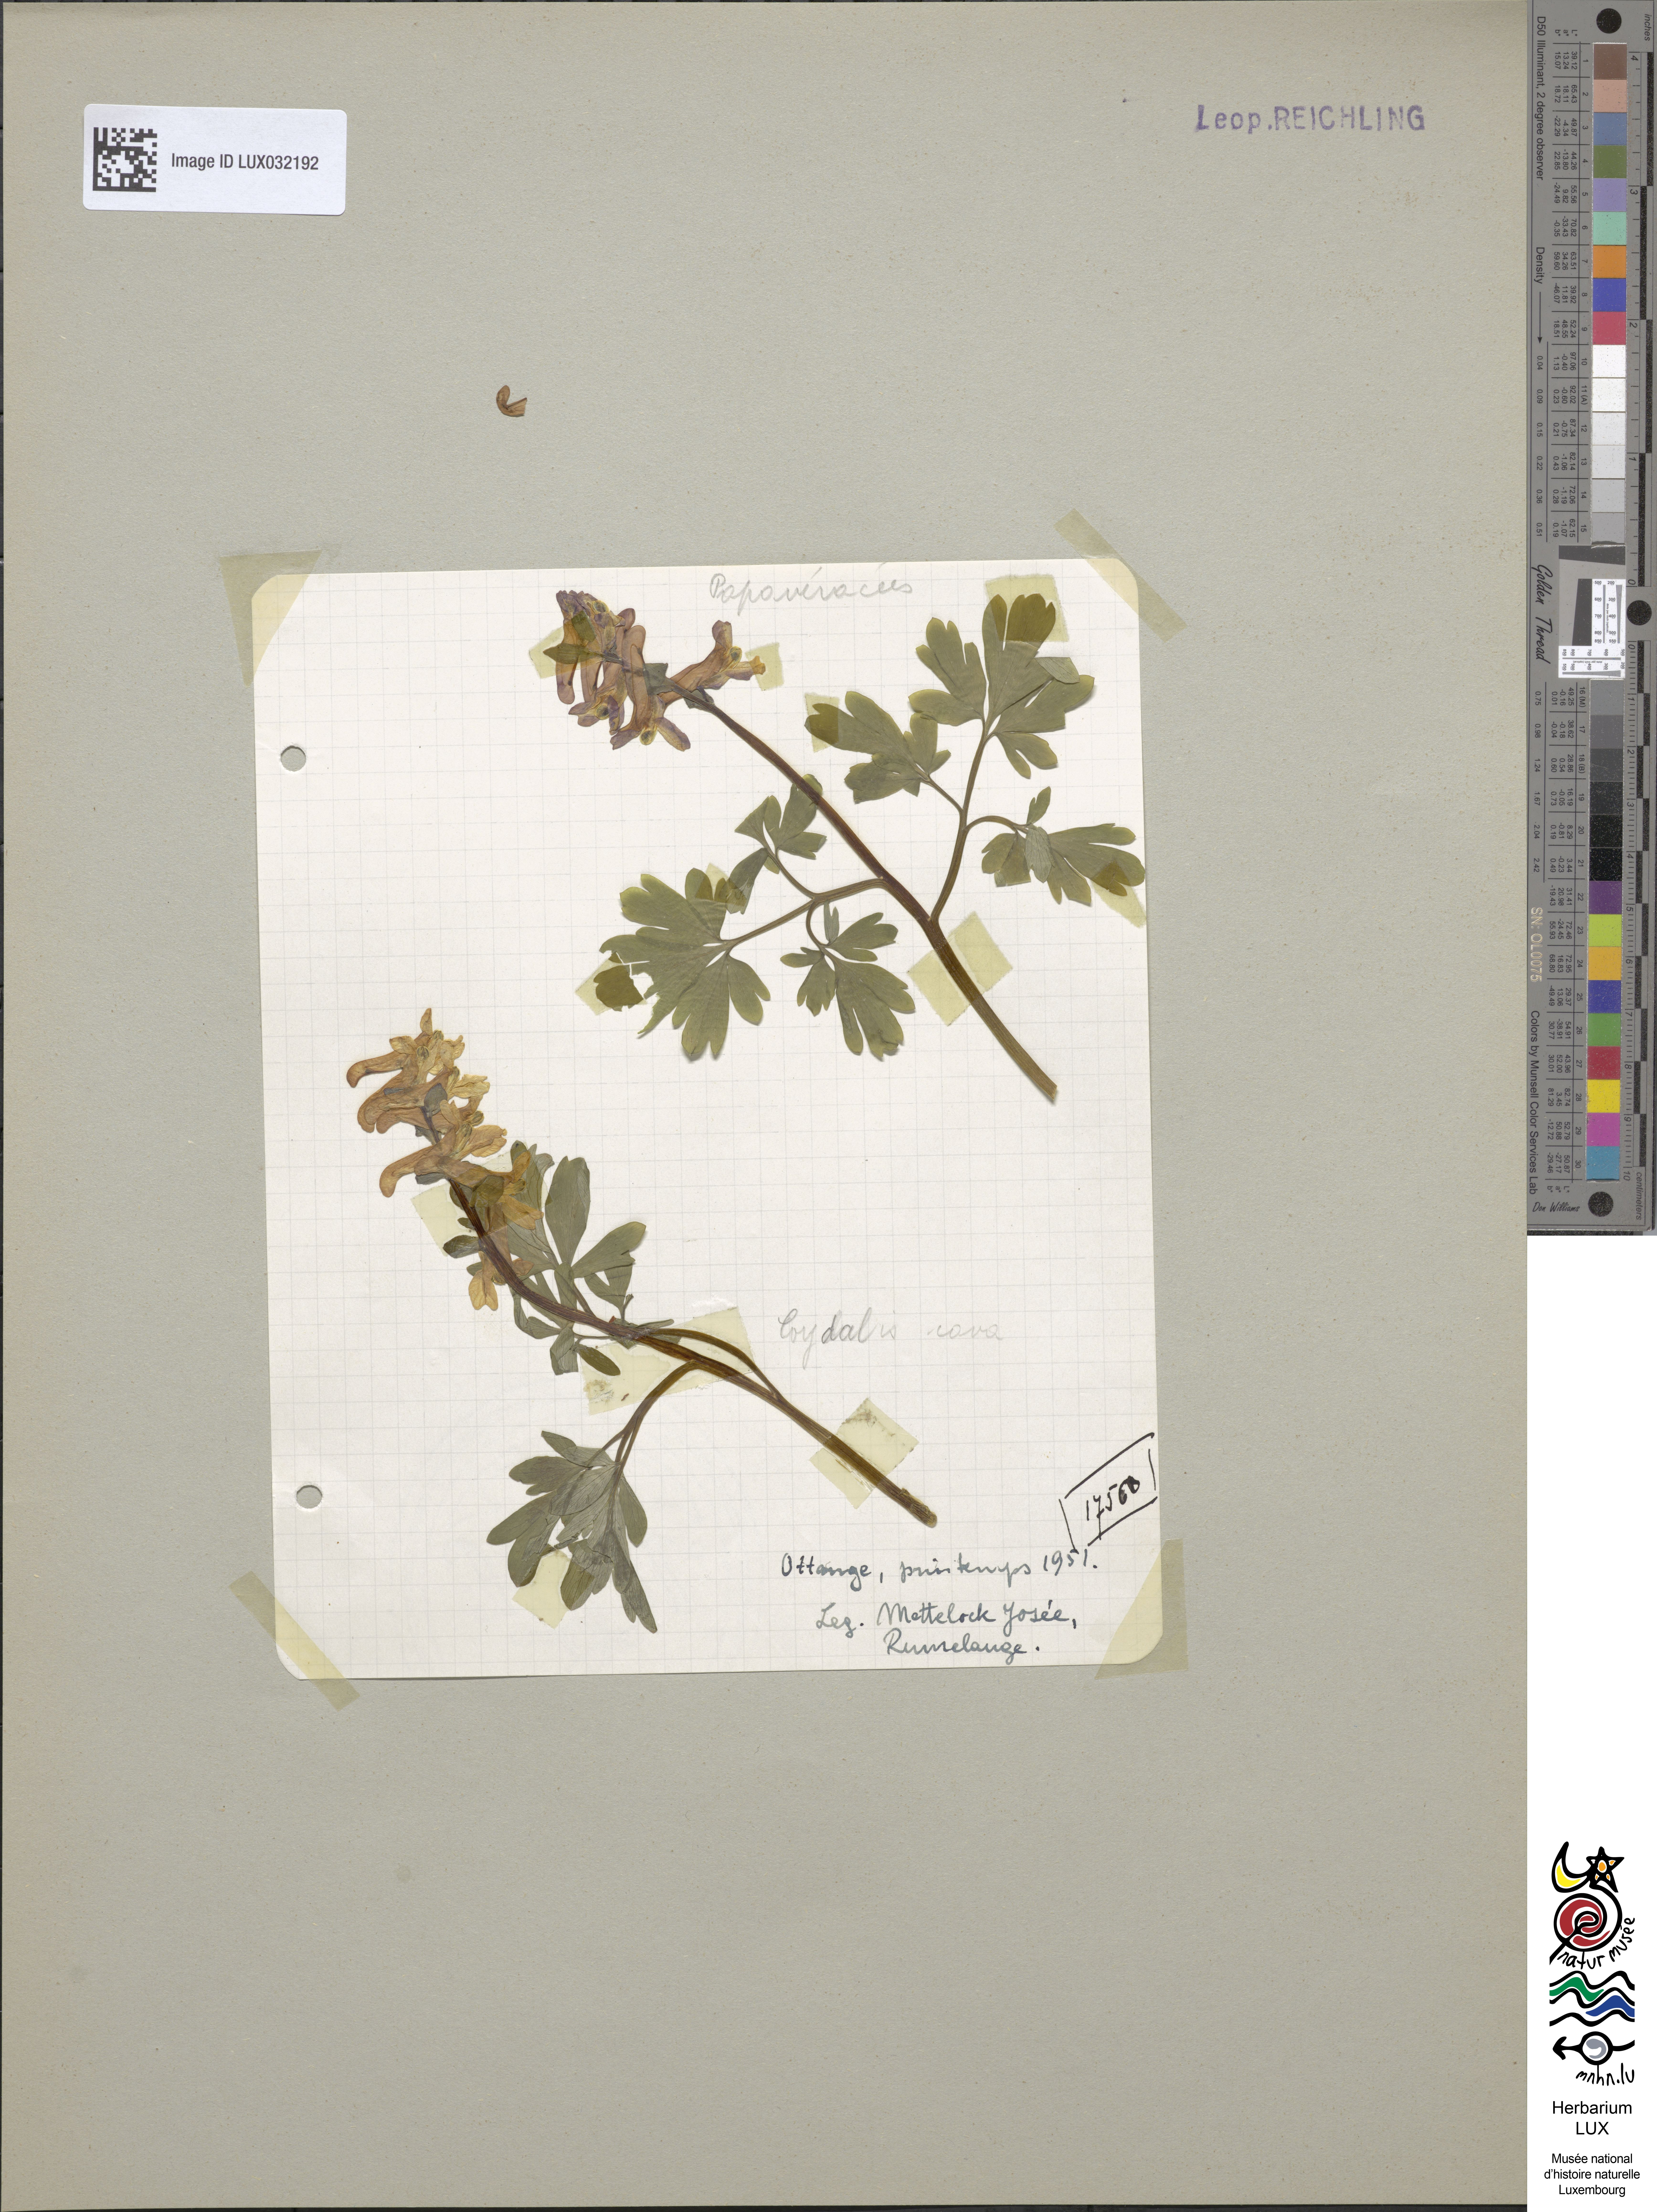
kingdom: Plantae
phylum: Tracheophyta
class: Magnoliopsida
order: Ranunculales
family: Papaveraceae
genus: Corydalis
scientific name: Corydalis cava
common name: Hollowroot
